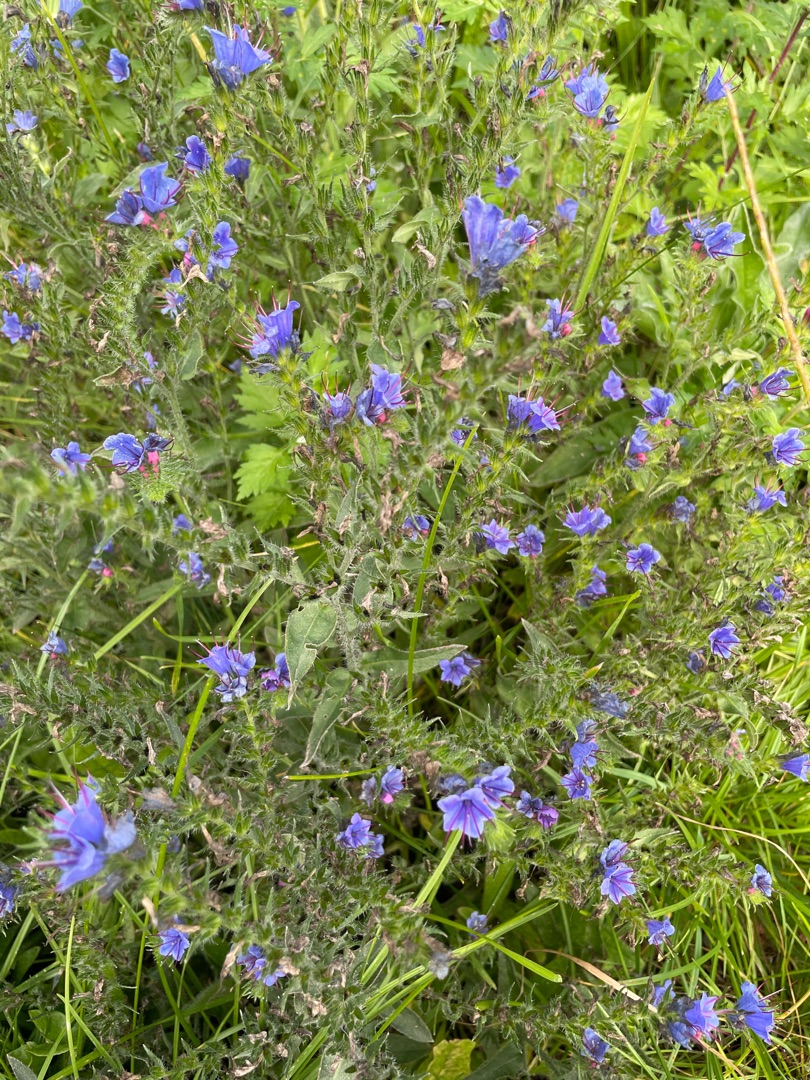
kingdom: Plantae
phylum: Tracheophyta
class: Magnoliopsida
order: Boraginales
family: Boraginaceae
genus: Echium
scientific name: Echium vulgare
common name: Slangehoved
